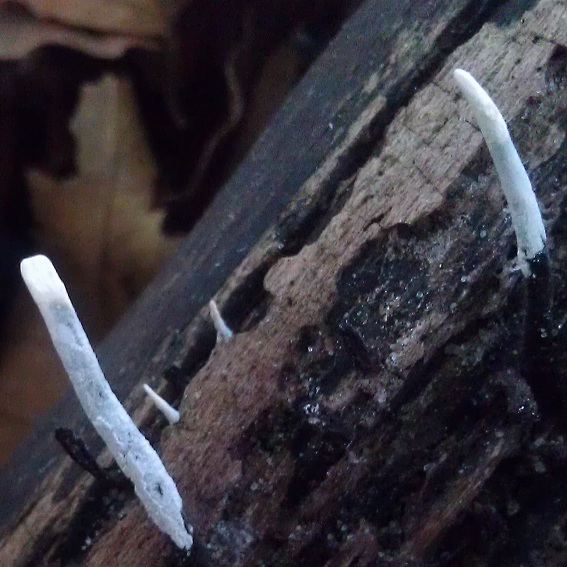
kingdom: Fungi
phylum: Ascomycota
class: Sordariomycetes
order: Xylariales
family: Xylariaceae
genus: Xylaria
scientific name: Xylaria hypoxylon
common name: grenet stødsvamp
